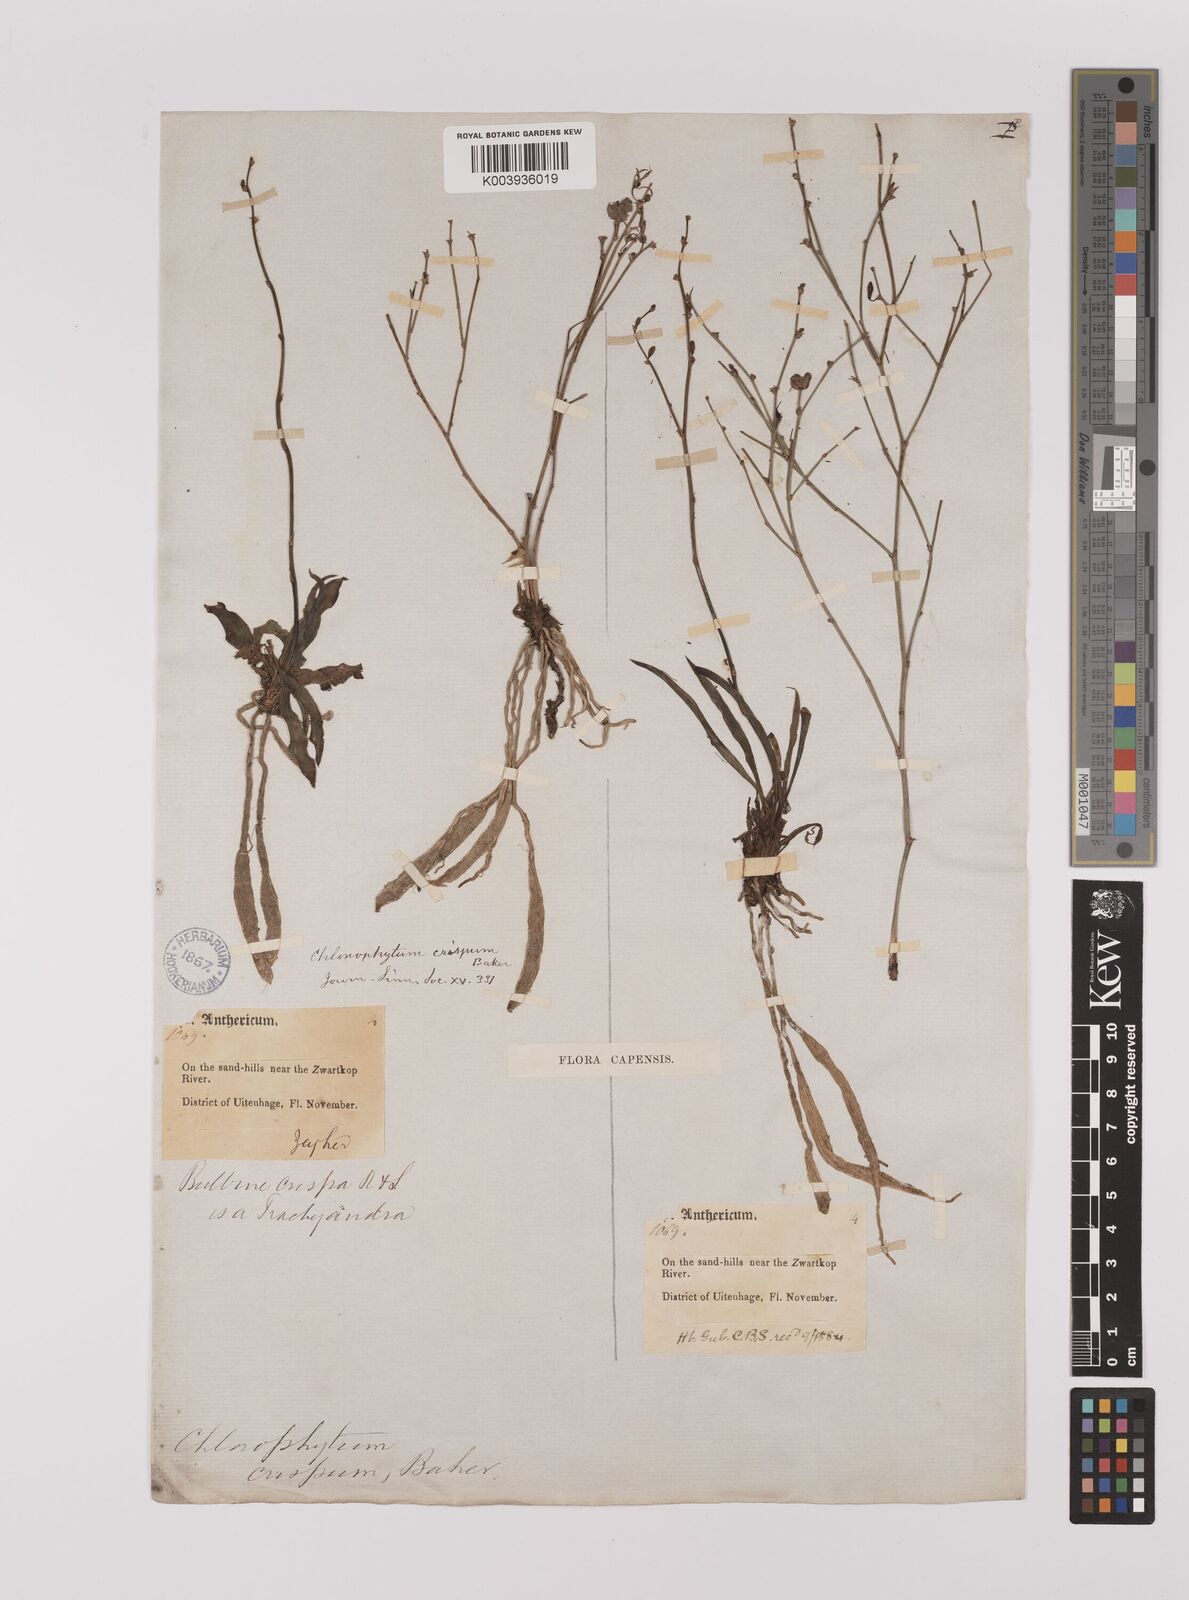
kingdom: Plantae
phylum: Tracheophyta
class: Liliopsida
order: Asparagales
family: Asparagaceae
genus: Chlorophytum
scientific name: Chlorophytum crispum
